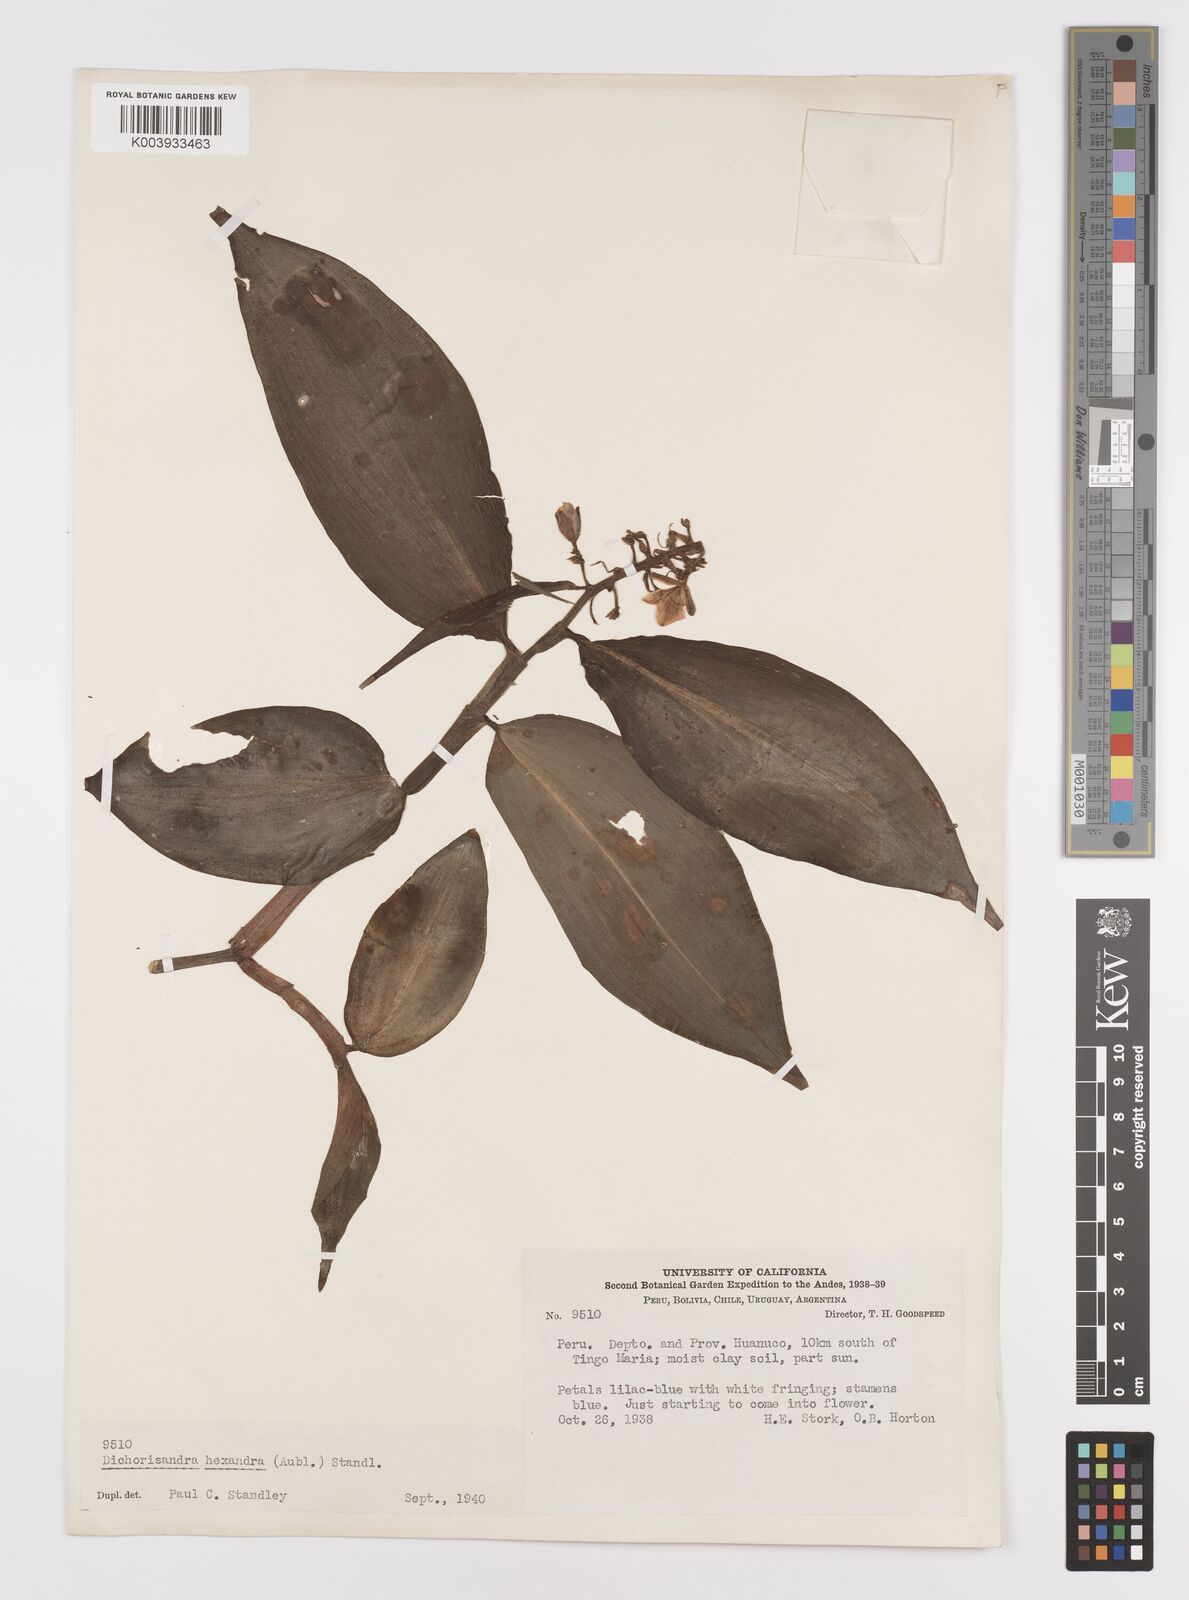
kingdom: Plantae
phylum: Tracheophyta
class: Liliopsida
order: Commelinales
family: Commelinaceae
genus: Dichorisandra
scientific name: Dichorisandra hexandra
